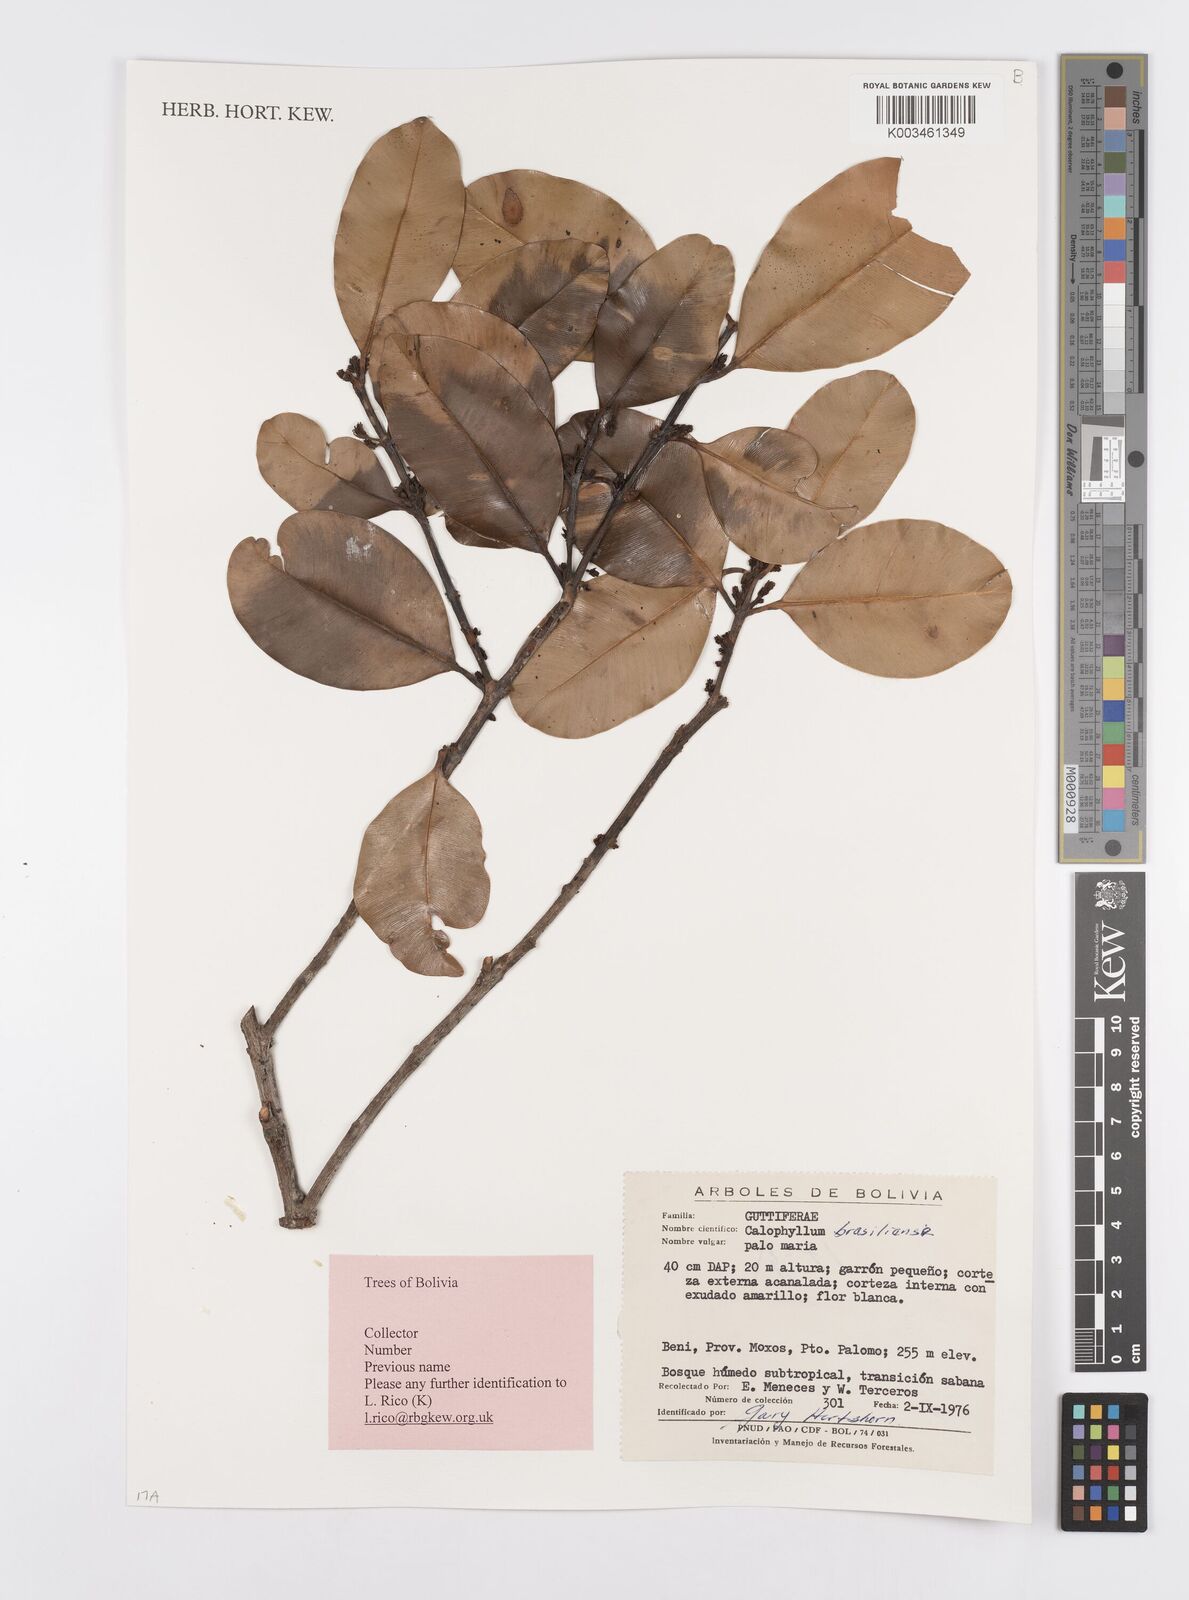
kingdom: Plantae
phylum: Tracheophyta
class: Magnoliopsida
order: Malpighiales
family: Calophyllaceae
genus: Calophyllum
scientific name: Calophyllum brasiliense
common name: Santa maria
